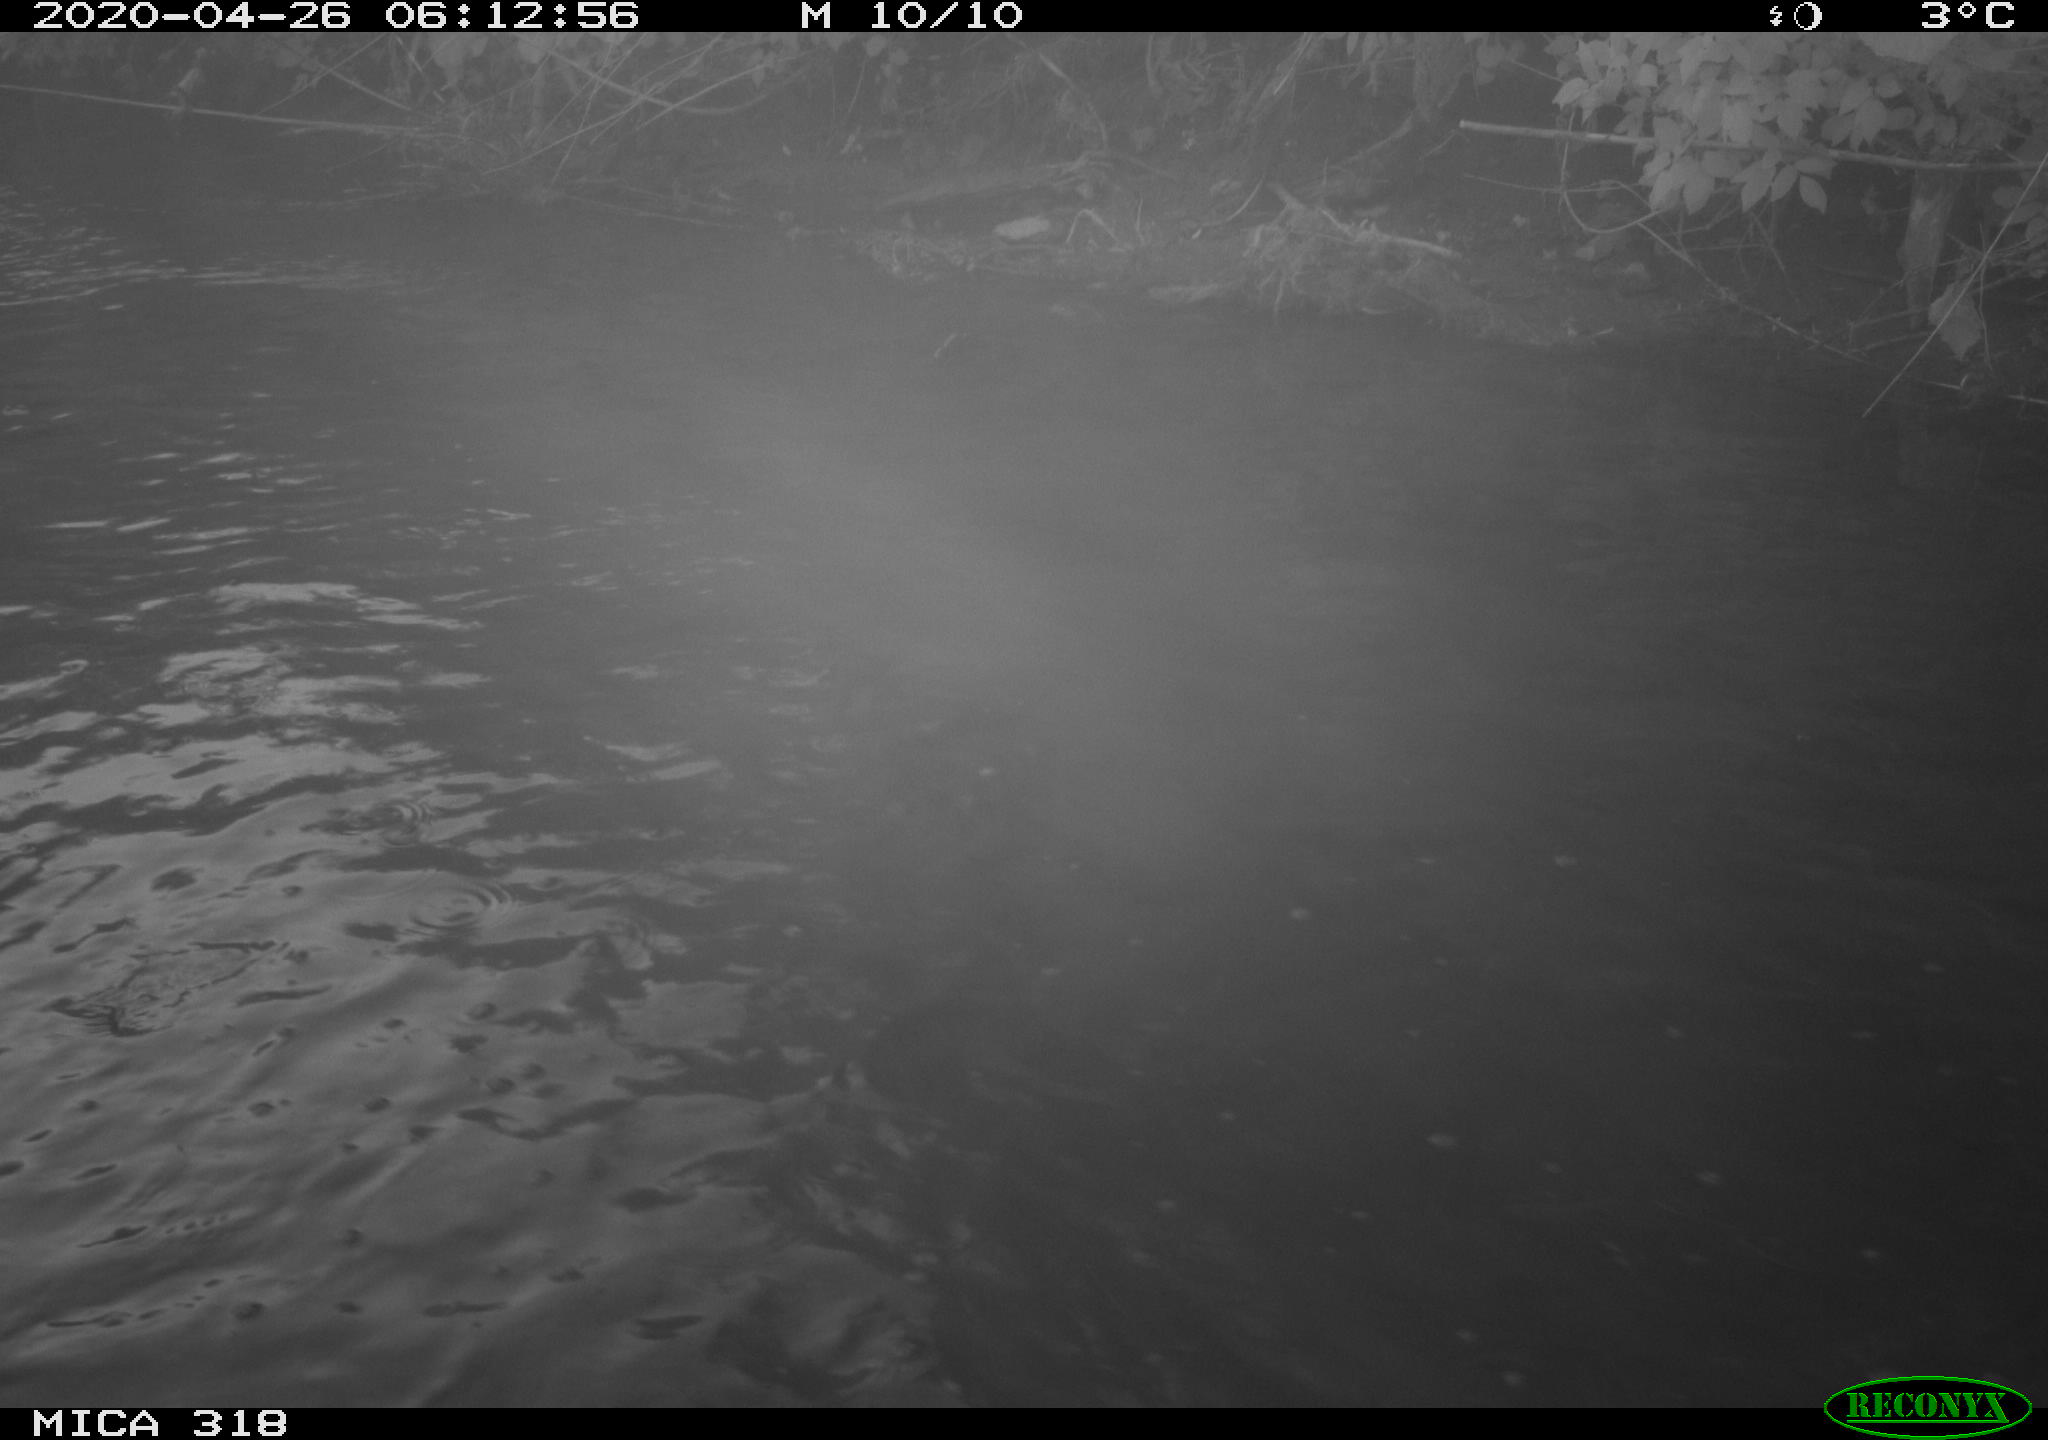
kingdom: Animalia
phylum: Chordata
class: Aves
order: Pelecaniformes
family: Ardeidae
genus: Ardea
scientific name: Ardea cinerea
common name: Grey heron
